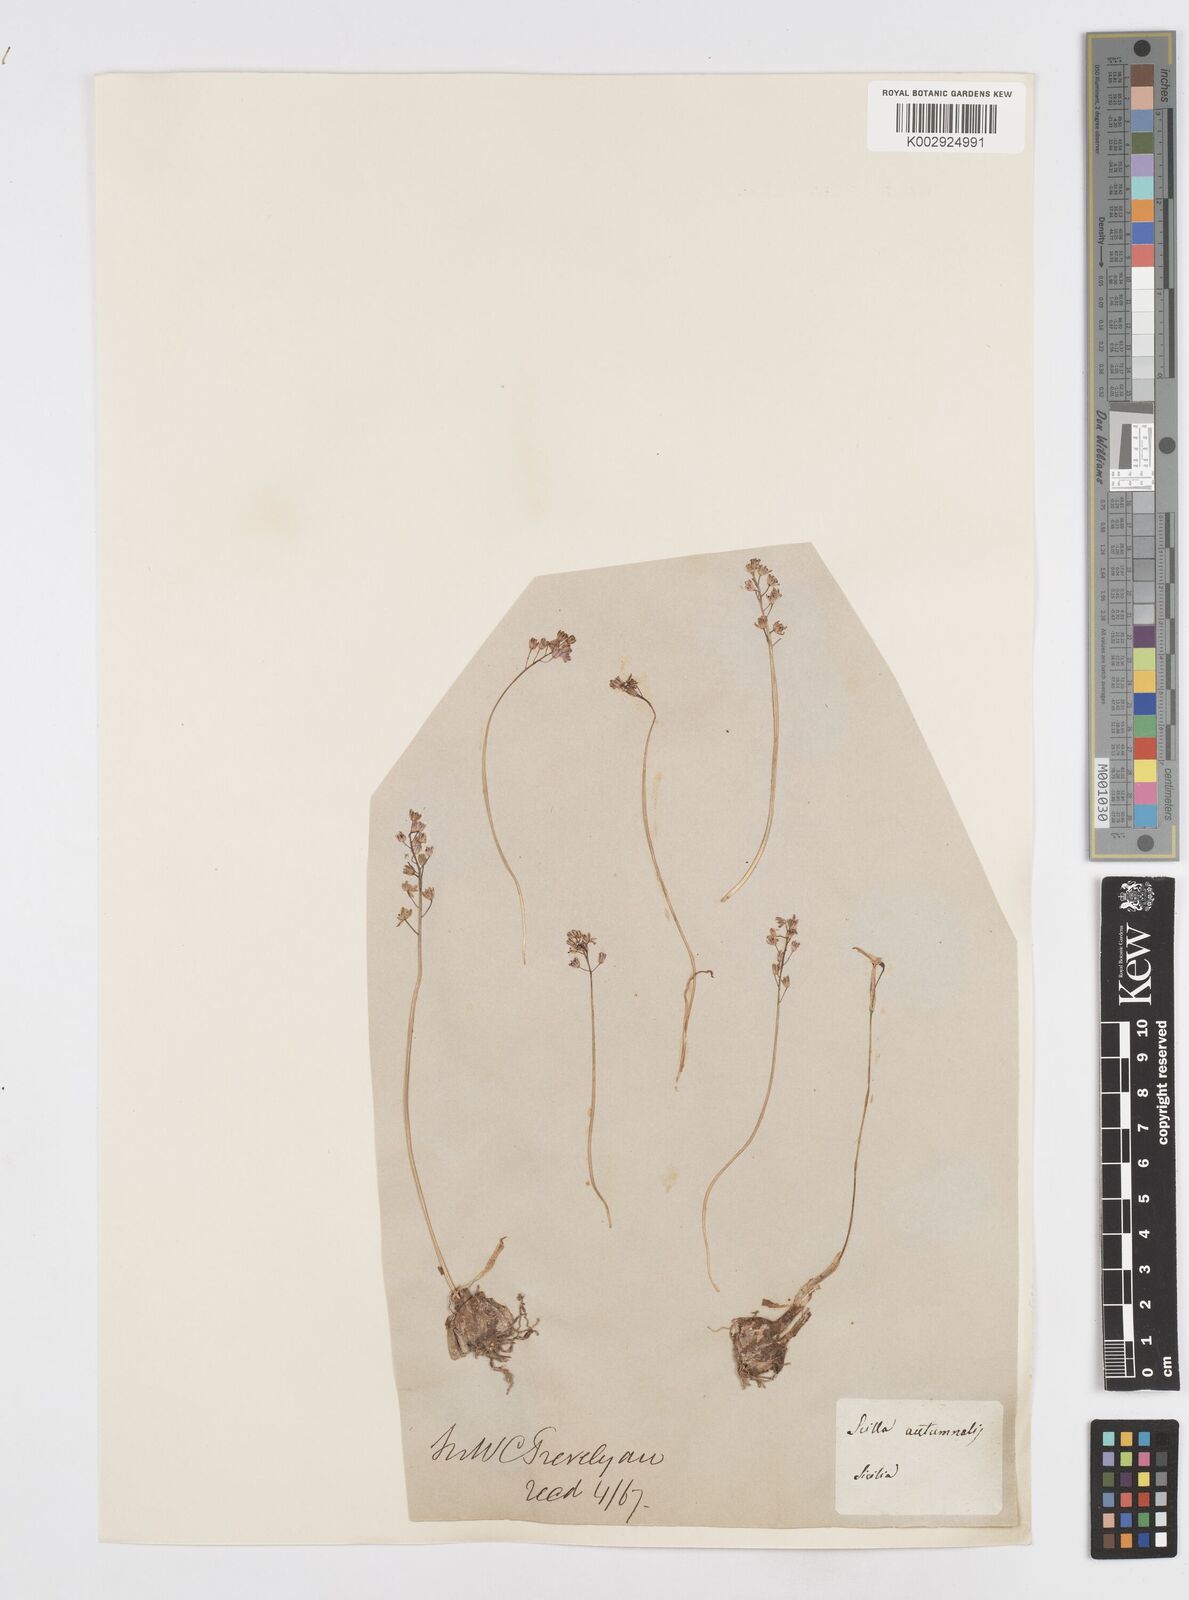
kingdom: Plantae
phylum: Tracheophyta
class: Liliopsida
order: Asparagales
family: Asparagaceae
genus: Prospero
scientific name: Prospero autumnale
